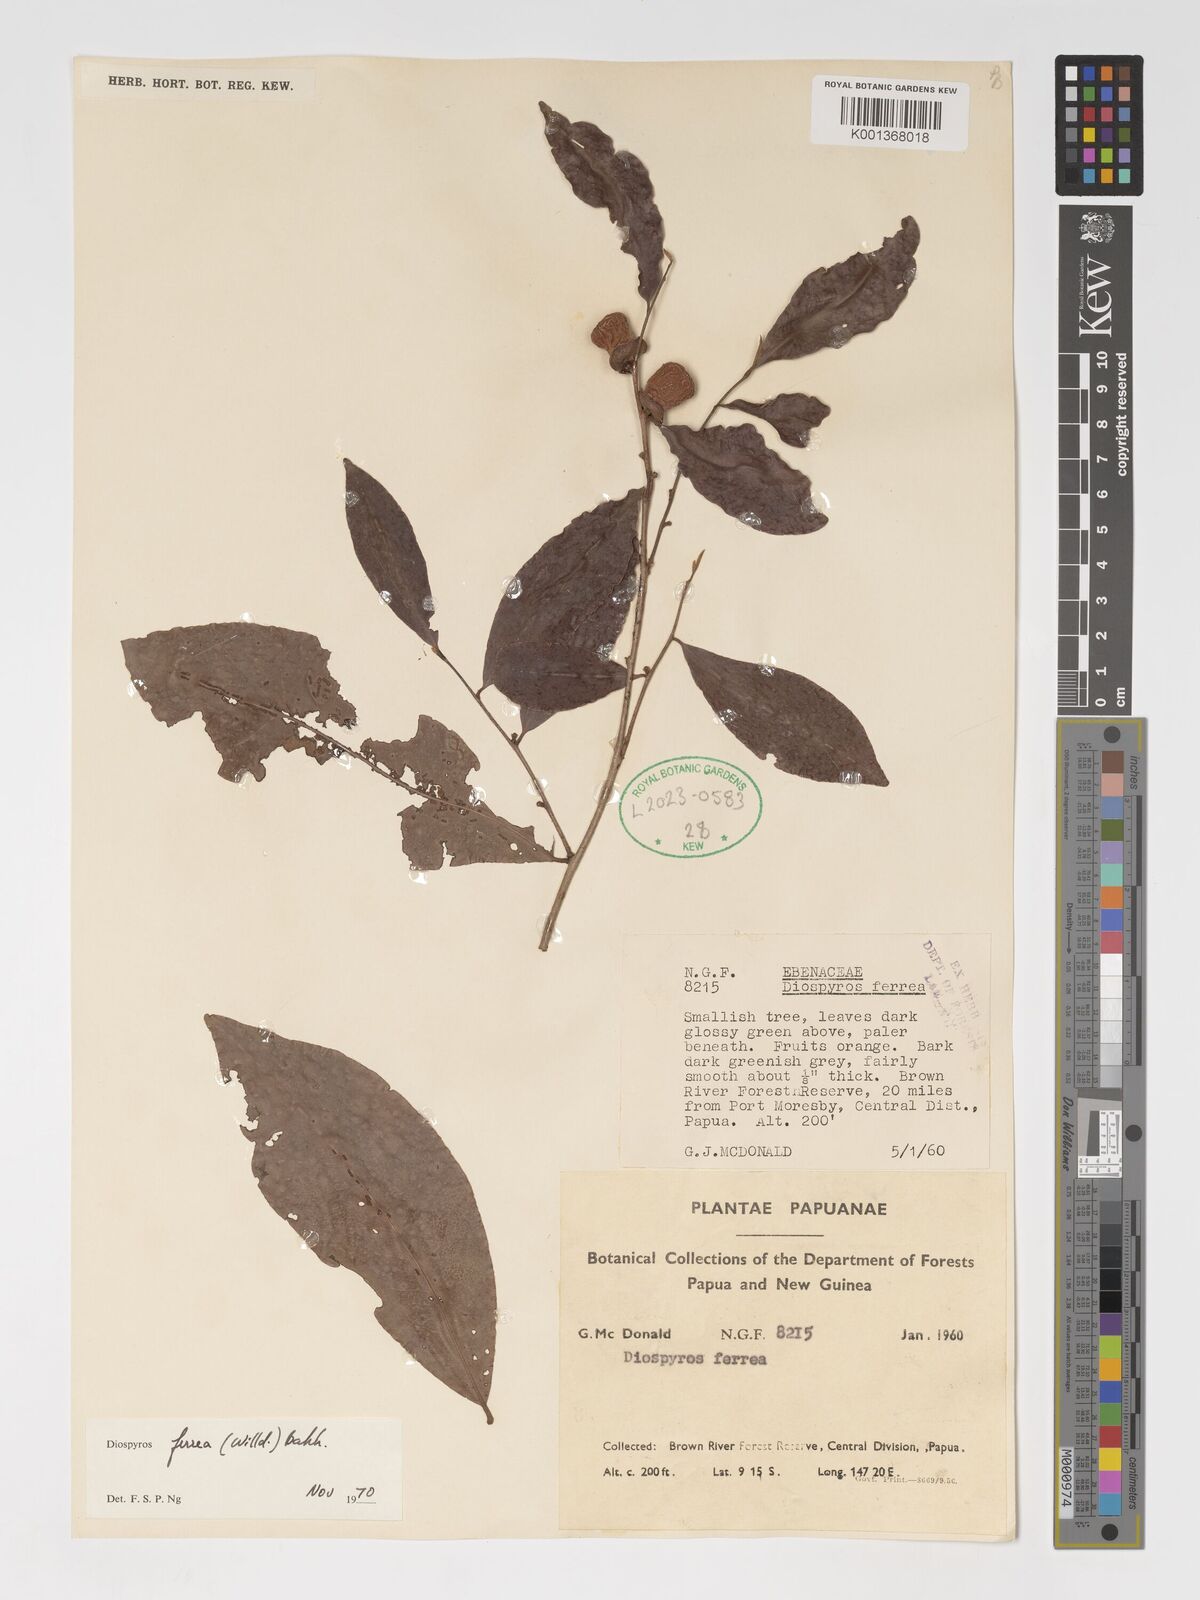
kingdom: Plantae
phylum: Tracheophyta
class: Magnoliopsida
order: Ericales
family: Ebenaceae
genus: Diospyros
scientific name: Diospyros ferrea
